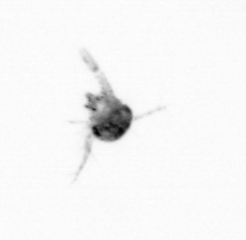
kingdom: Animalia
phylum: Arthropoda
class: Copepoda
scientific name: Copepoda
